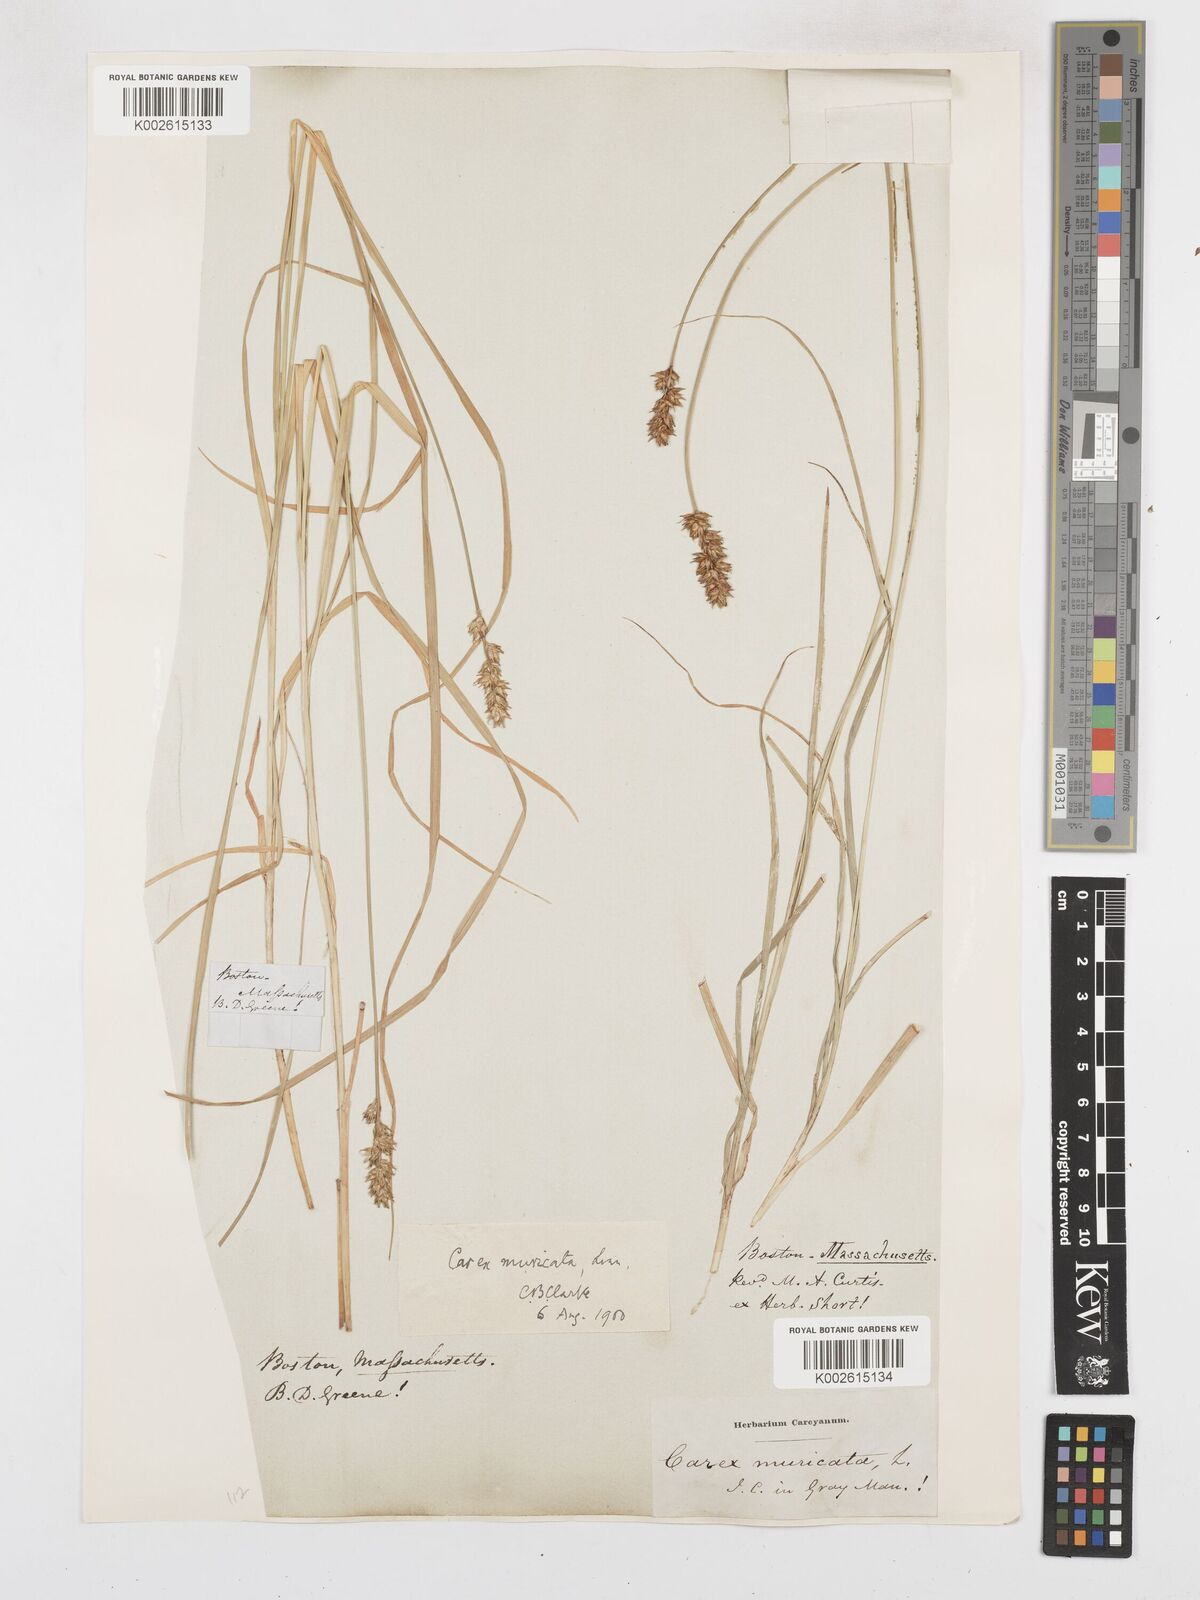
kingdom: Plantae
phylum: Tracheophyta
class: Liliopsida
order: Poales
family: Cyperaceae
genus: Carex
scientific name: Carex echinata
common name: Star sedge
